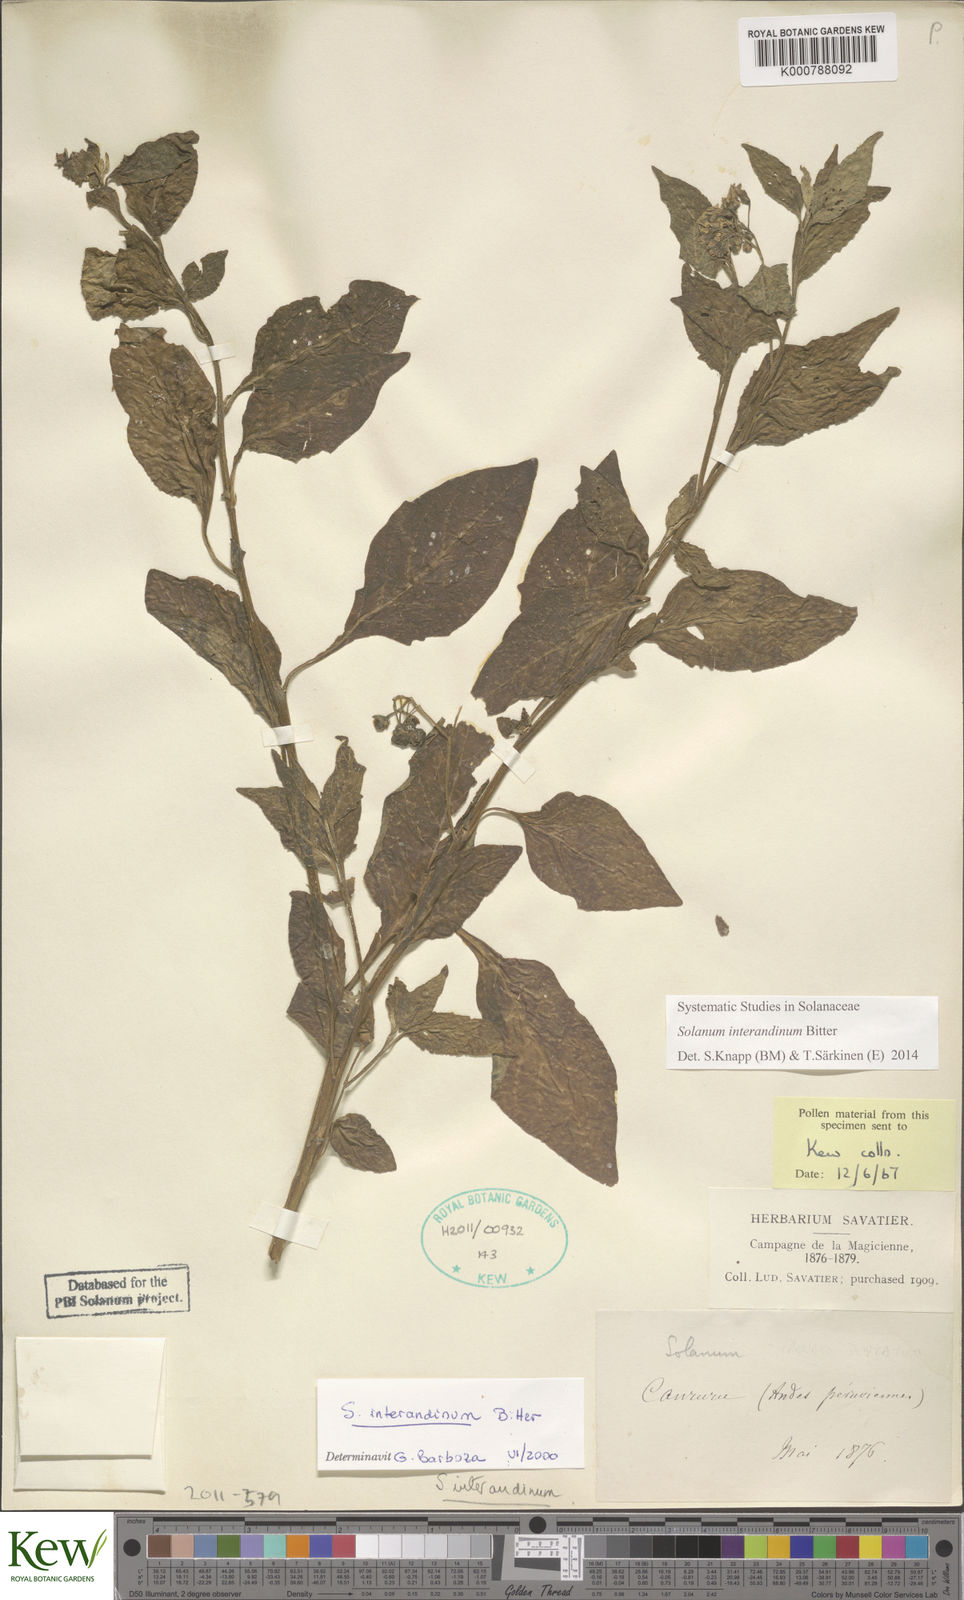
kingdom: Plantae
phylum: Tracheophyta
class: Magnoliopsida
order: Solanales
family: Solanaceae
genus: Solanum
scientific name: Solanum interandinum
